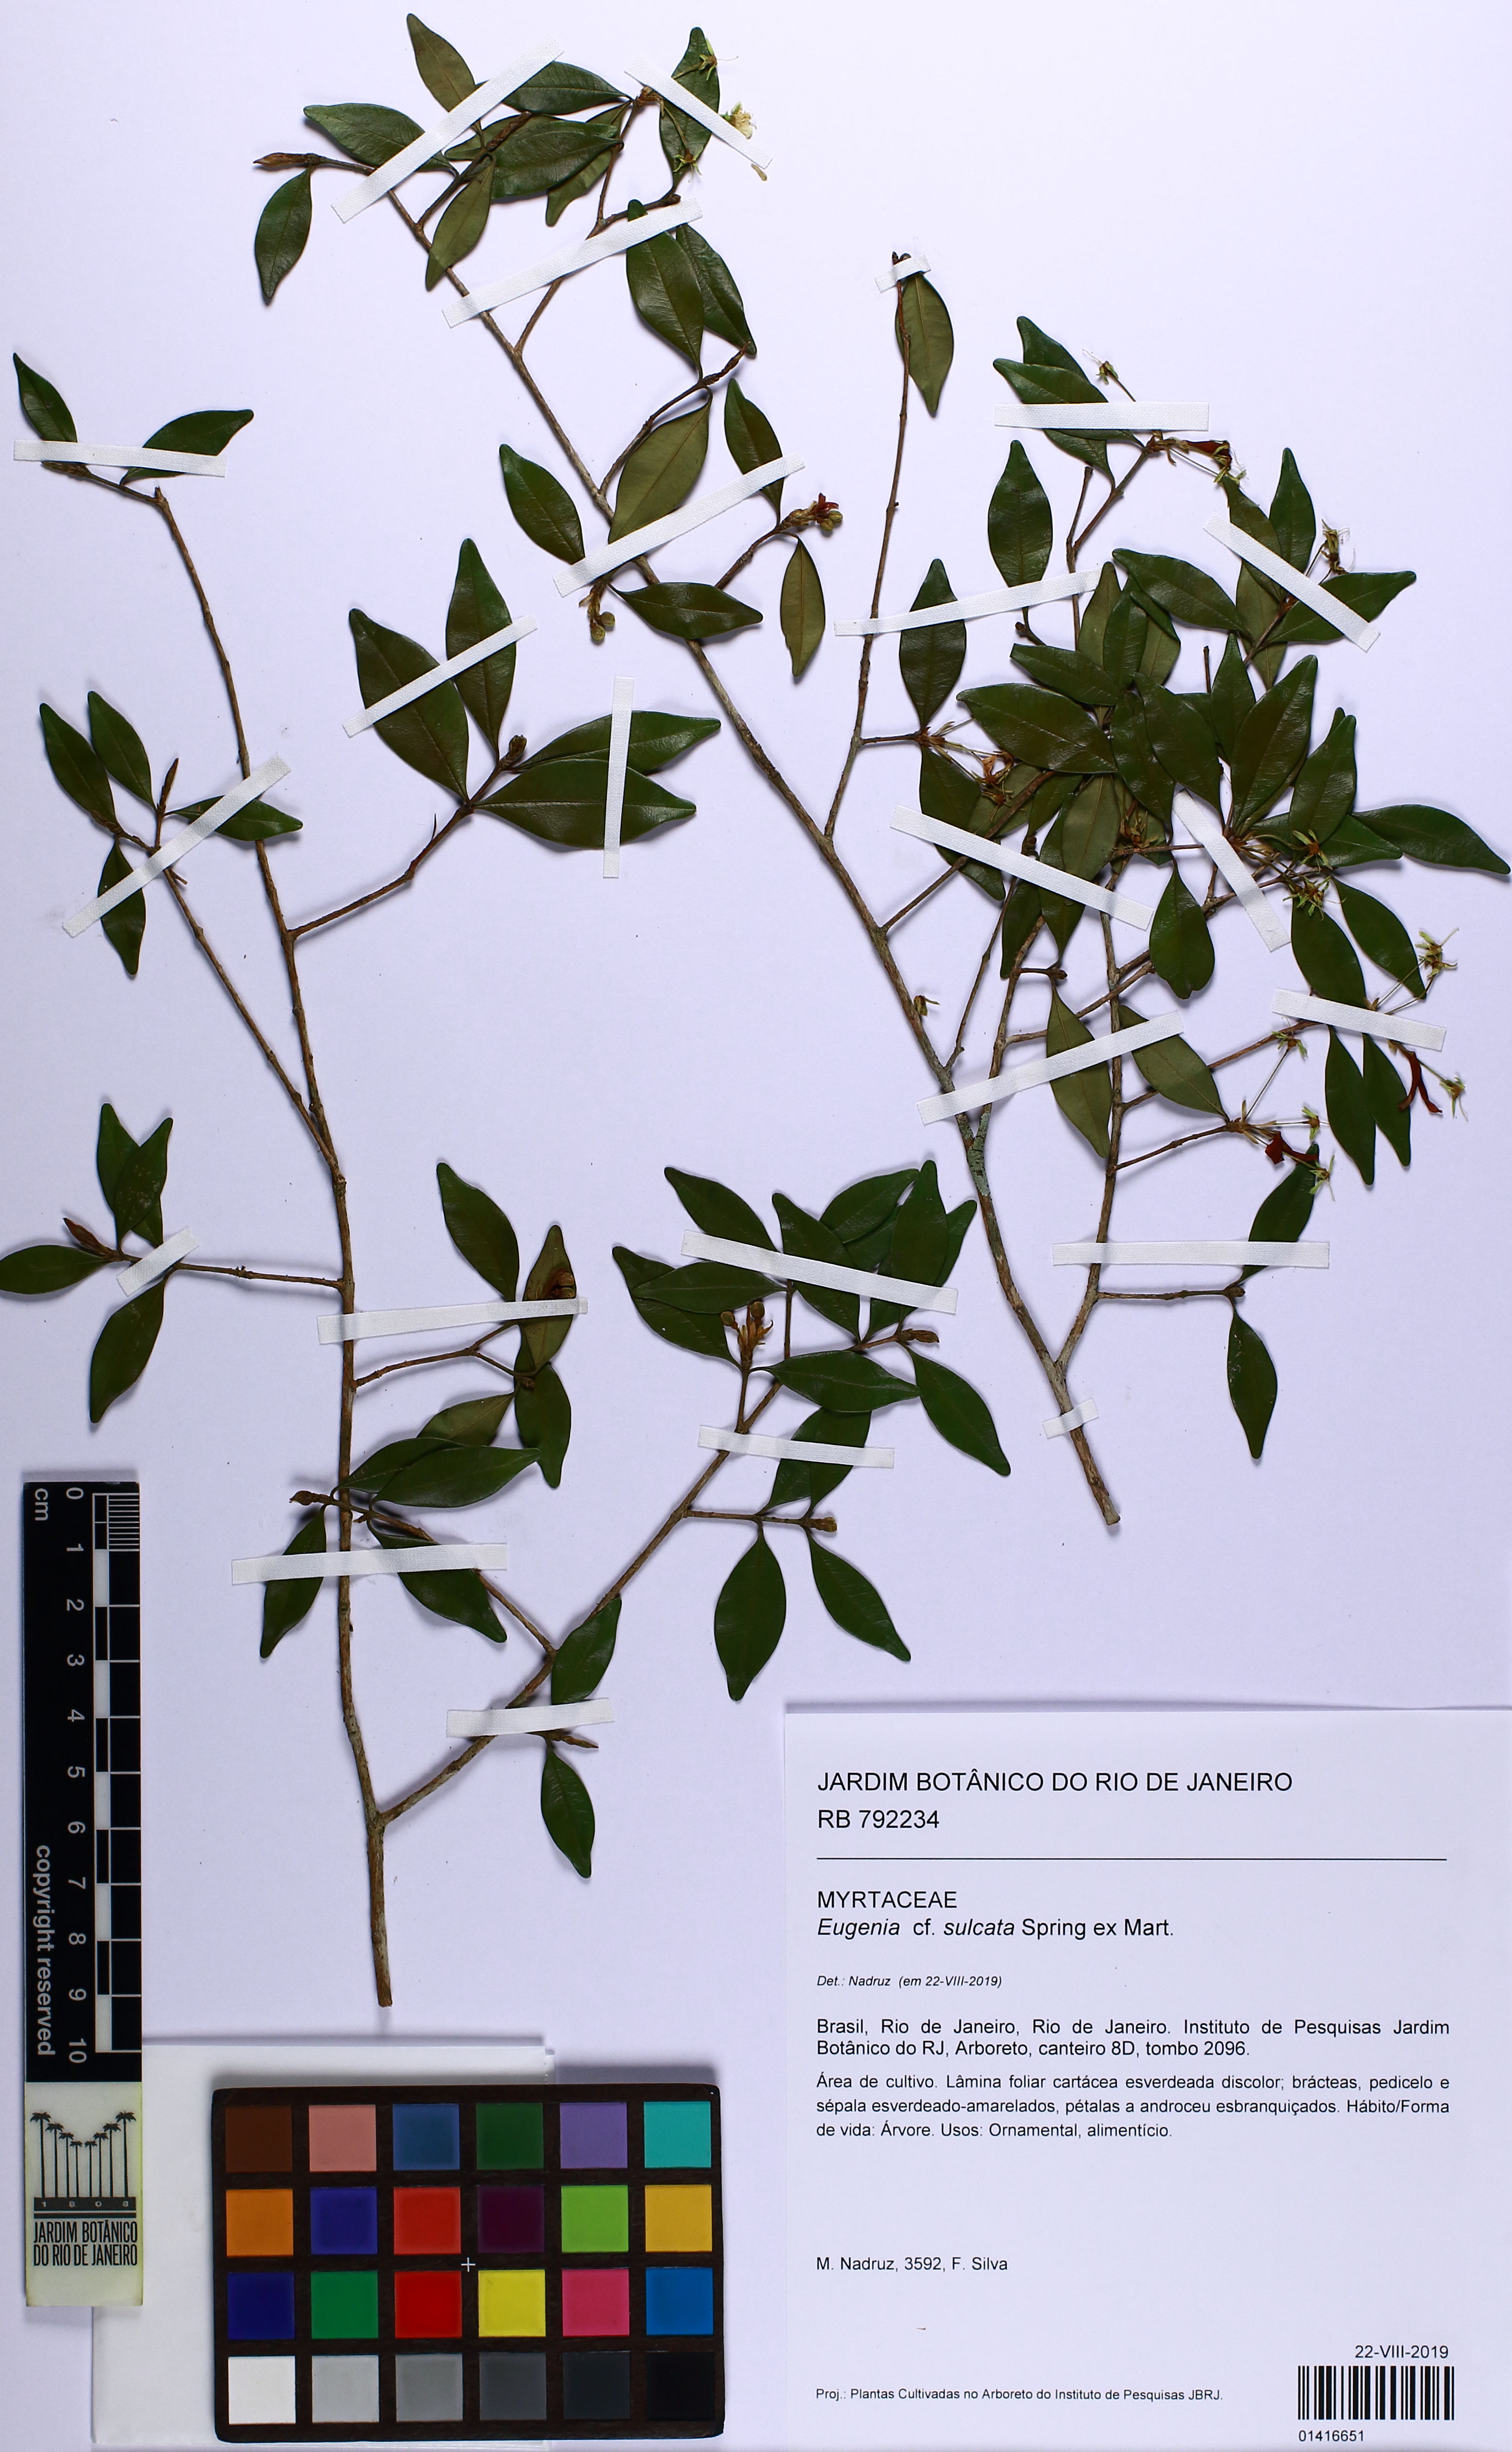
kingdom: Plantae
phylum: Tracheophyta
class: Magnoliopsida
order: Myrtales
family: Myrtaceae
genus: Eugenia
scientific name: Eugenia sulcata
